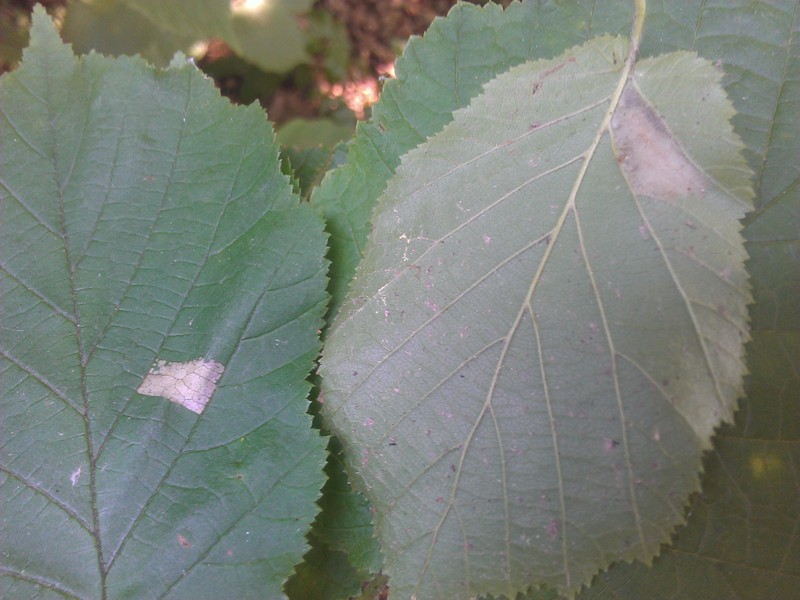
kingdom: Animalia
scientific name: Animalia
